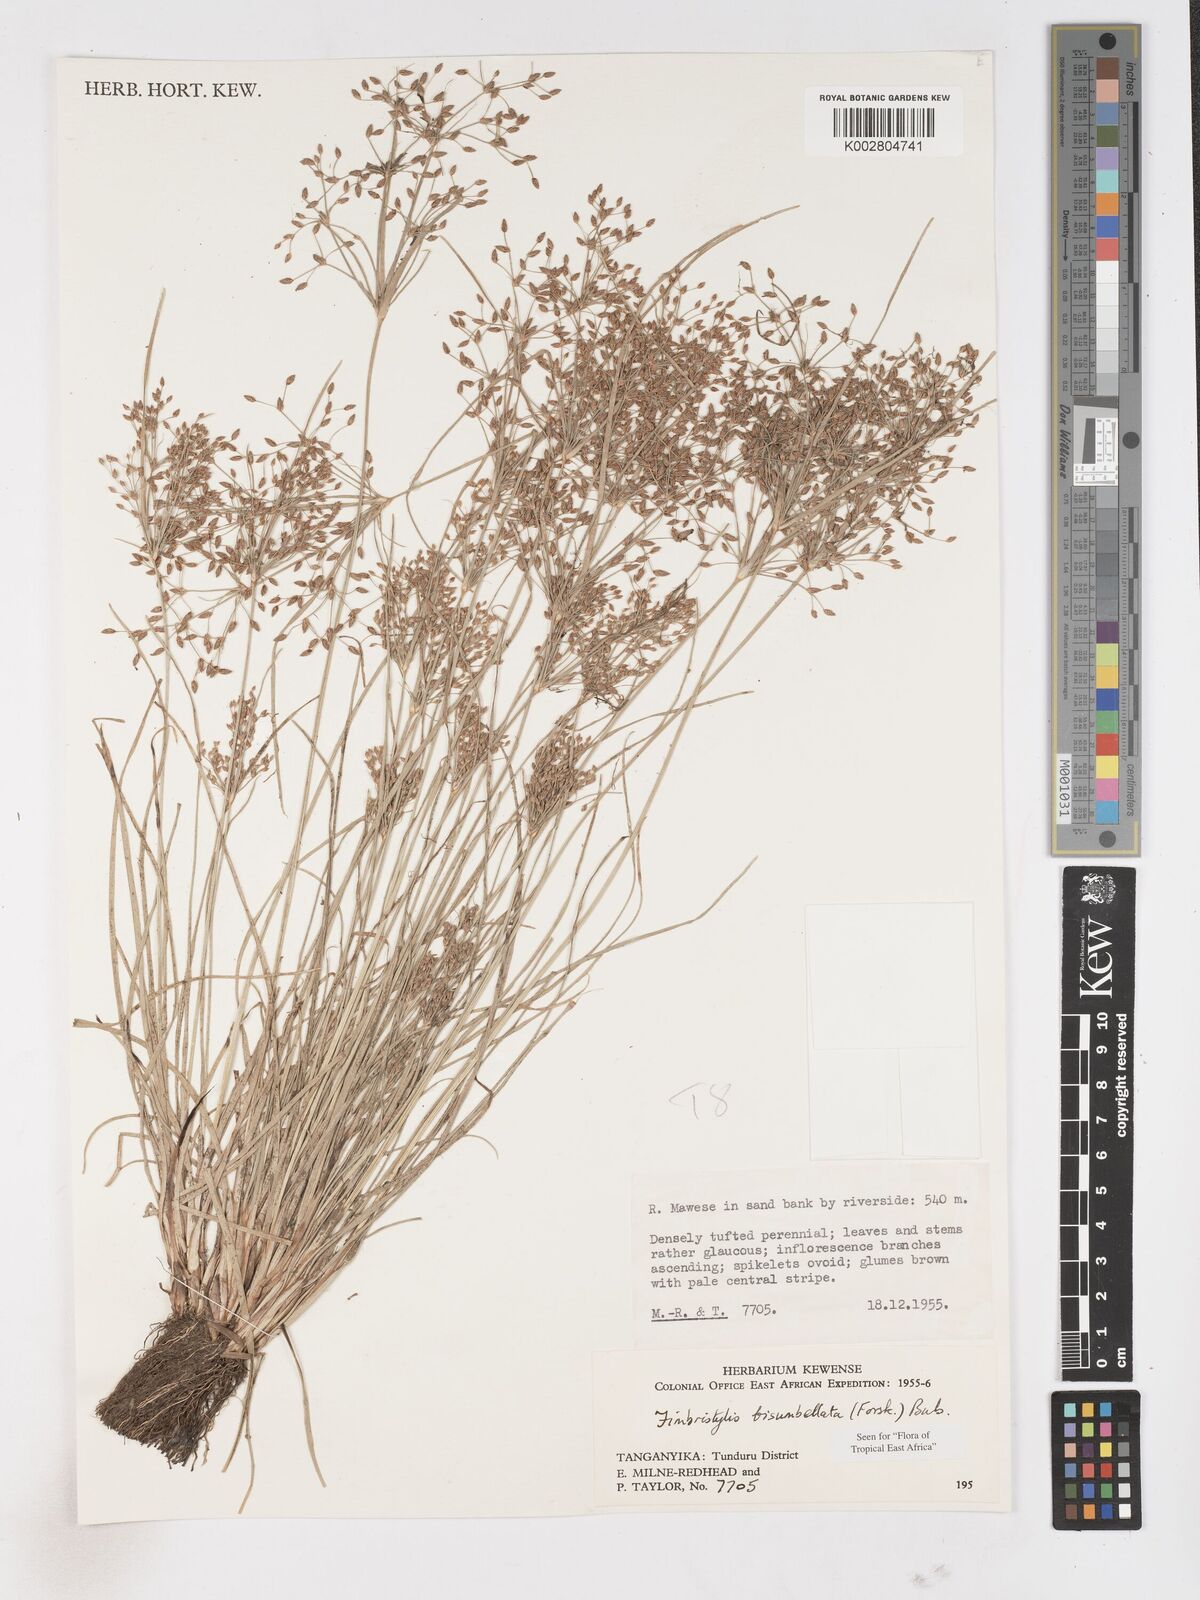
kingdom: Plantae
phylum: Tracheophyta
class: Liliopsida
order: Poales
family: Cyperaceae
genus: Fimbristylis
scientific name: Fimbristylis bisumbellata
